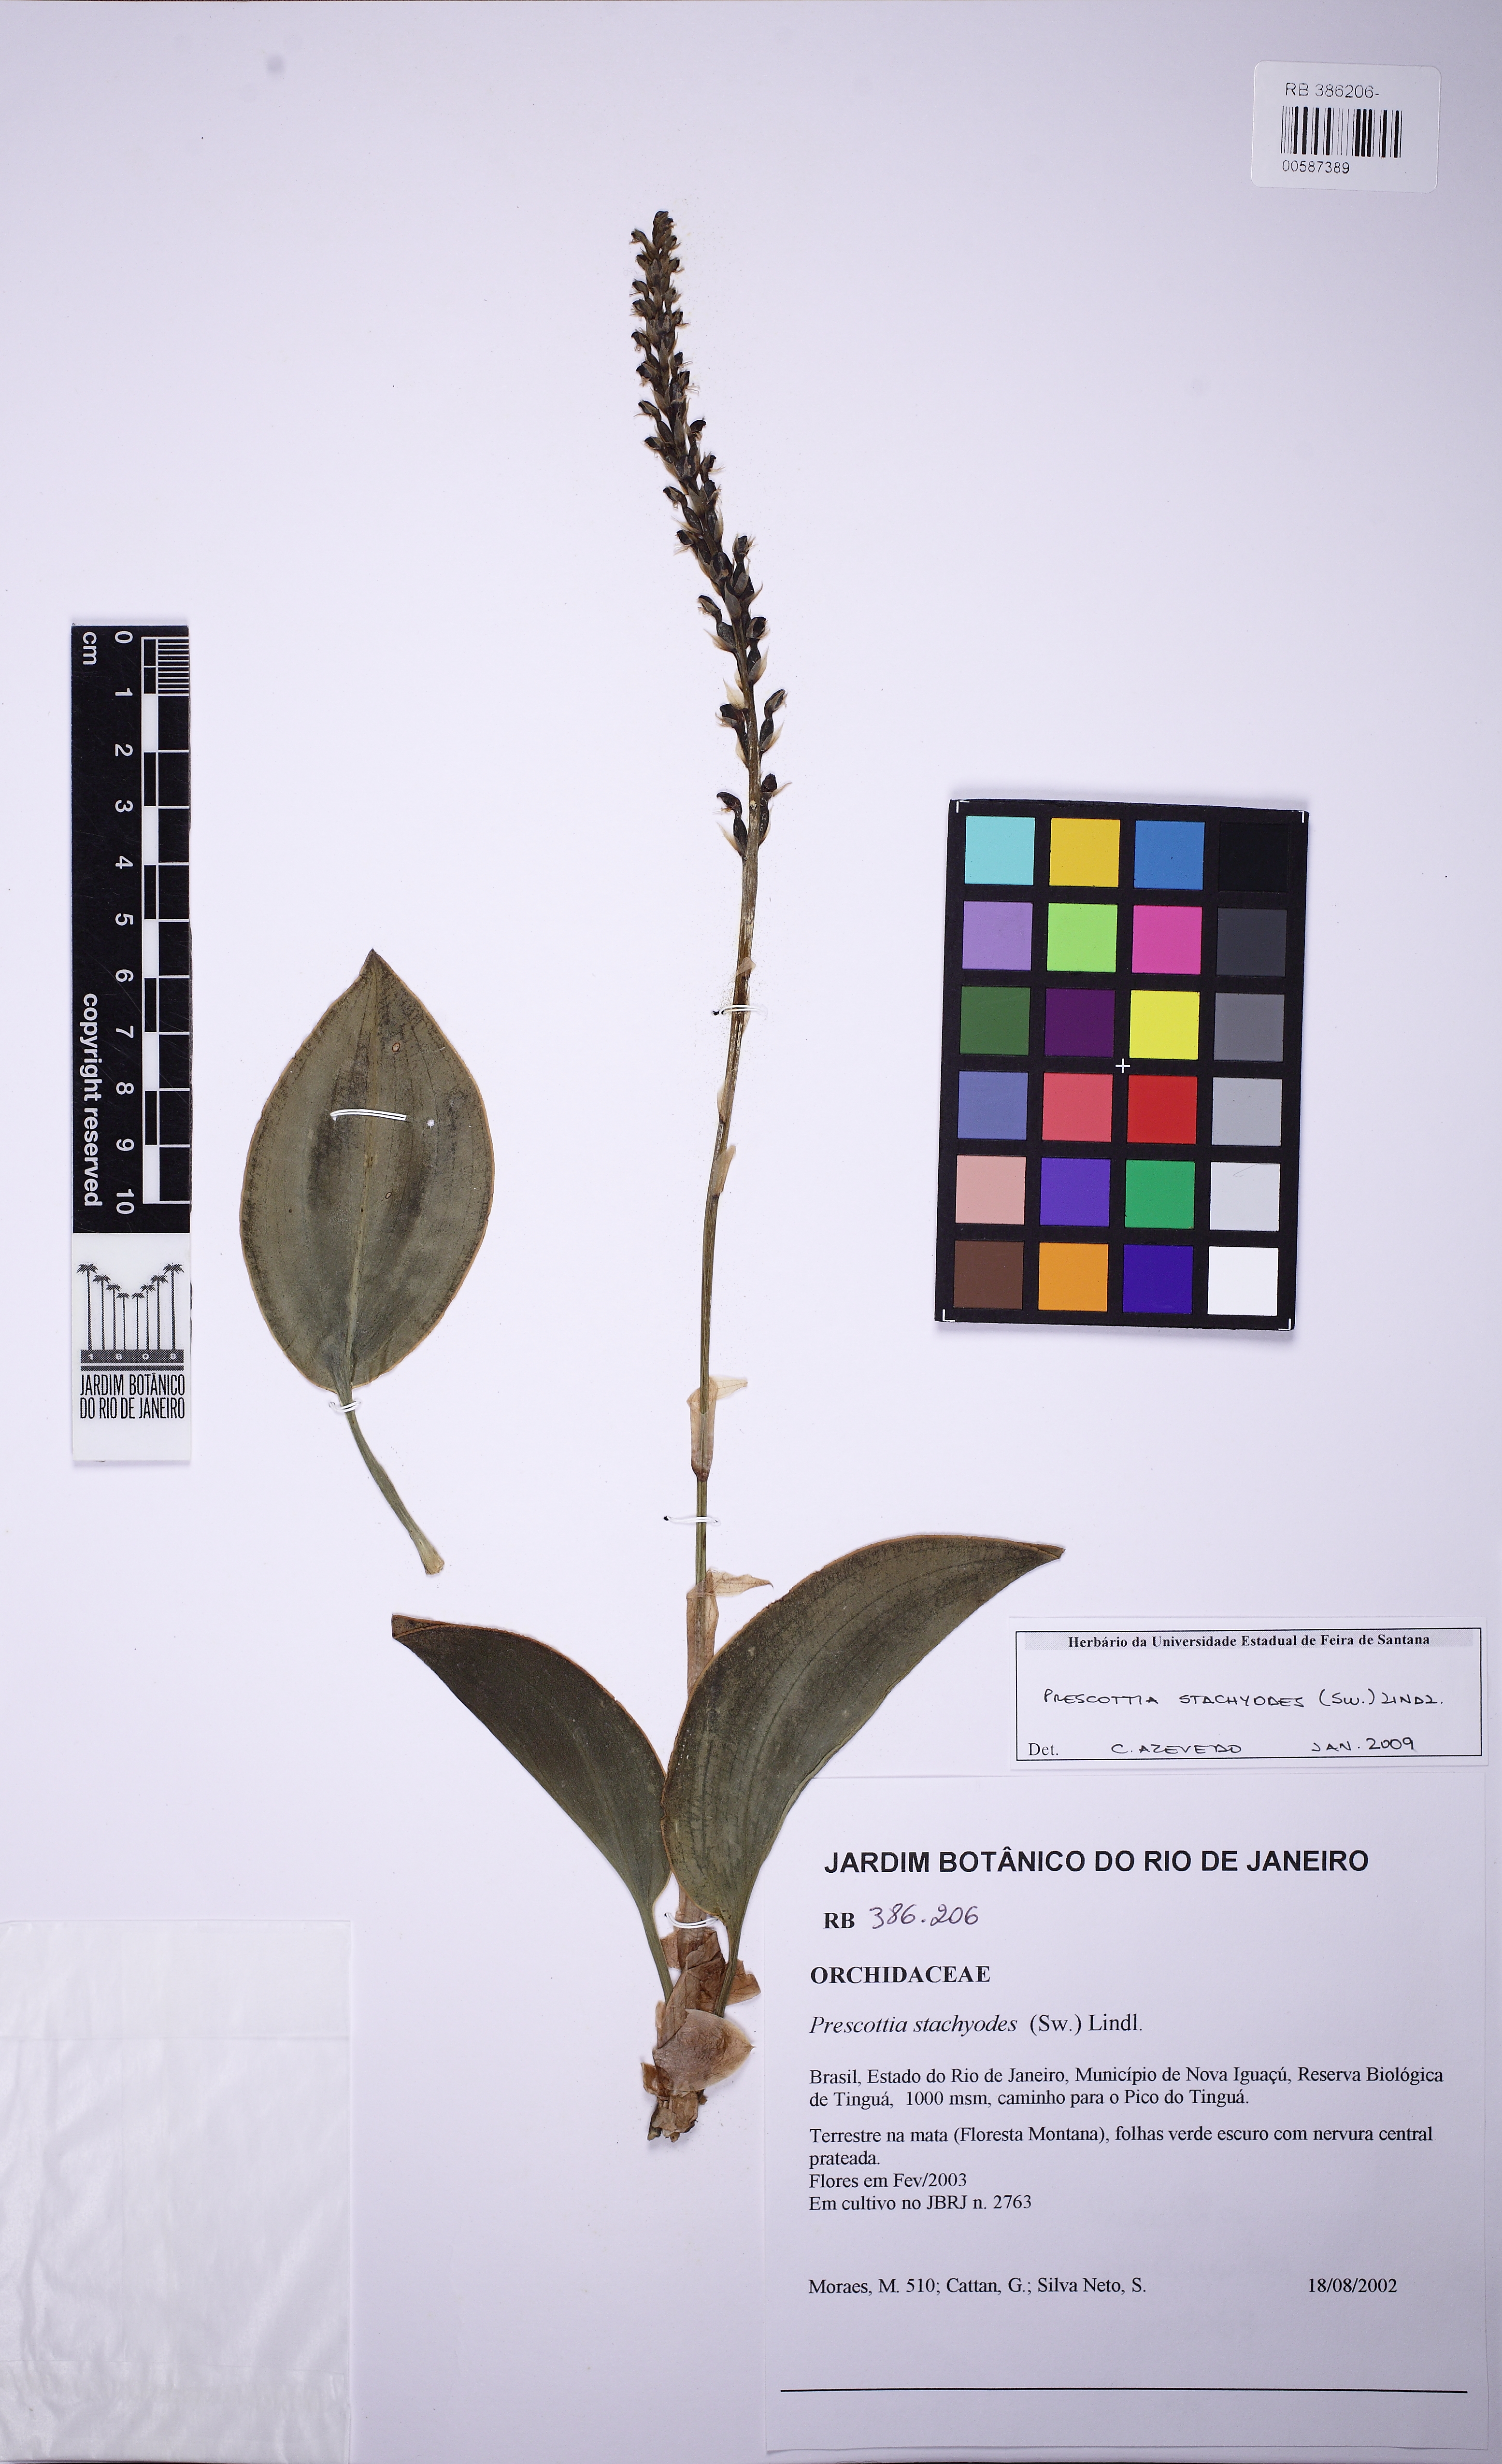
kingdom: Plantae
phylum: Tracheophyta
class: Liliopsida
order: Asparagales
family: Orchidaceae
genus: Prescottia
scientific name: Prescottia stachyodes
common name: Mountain prescott orchid
